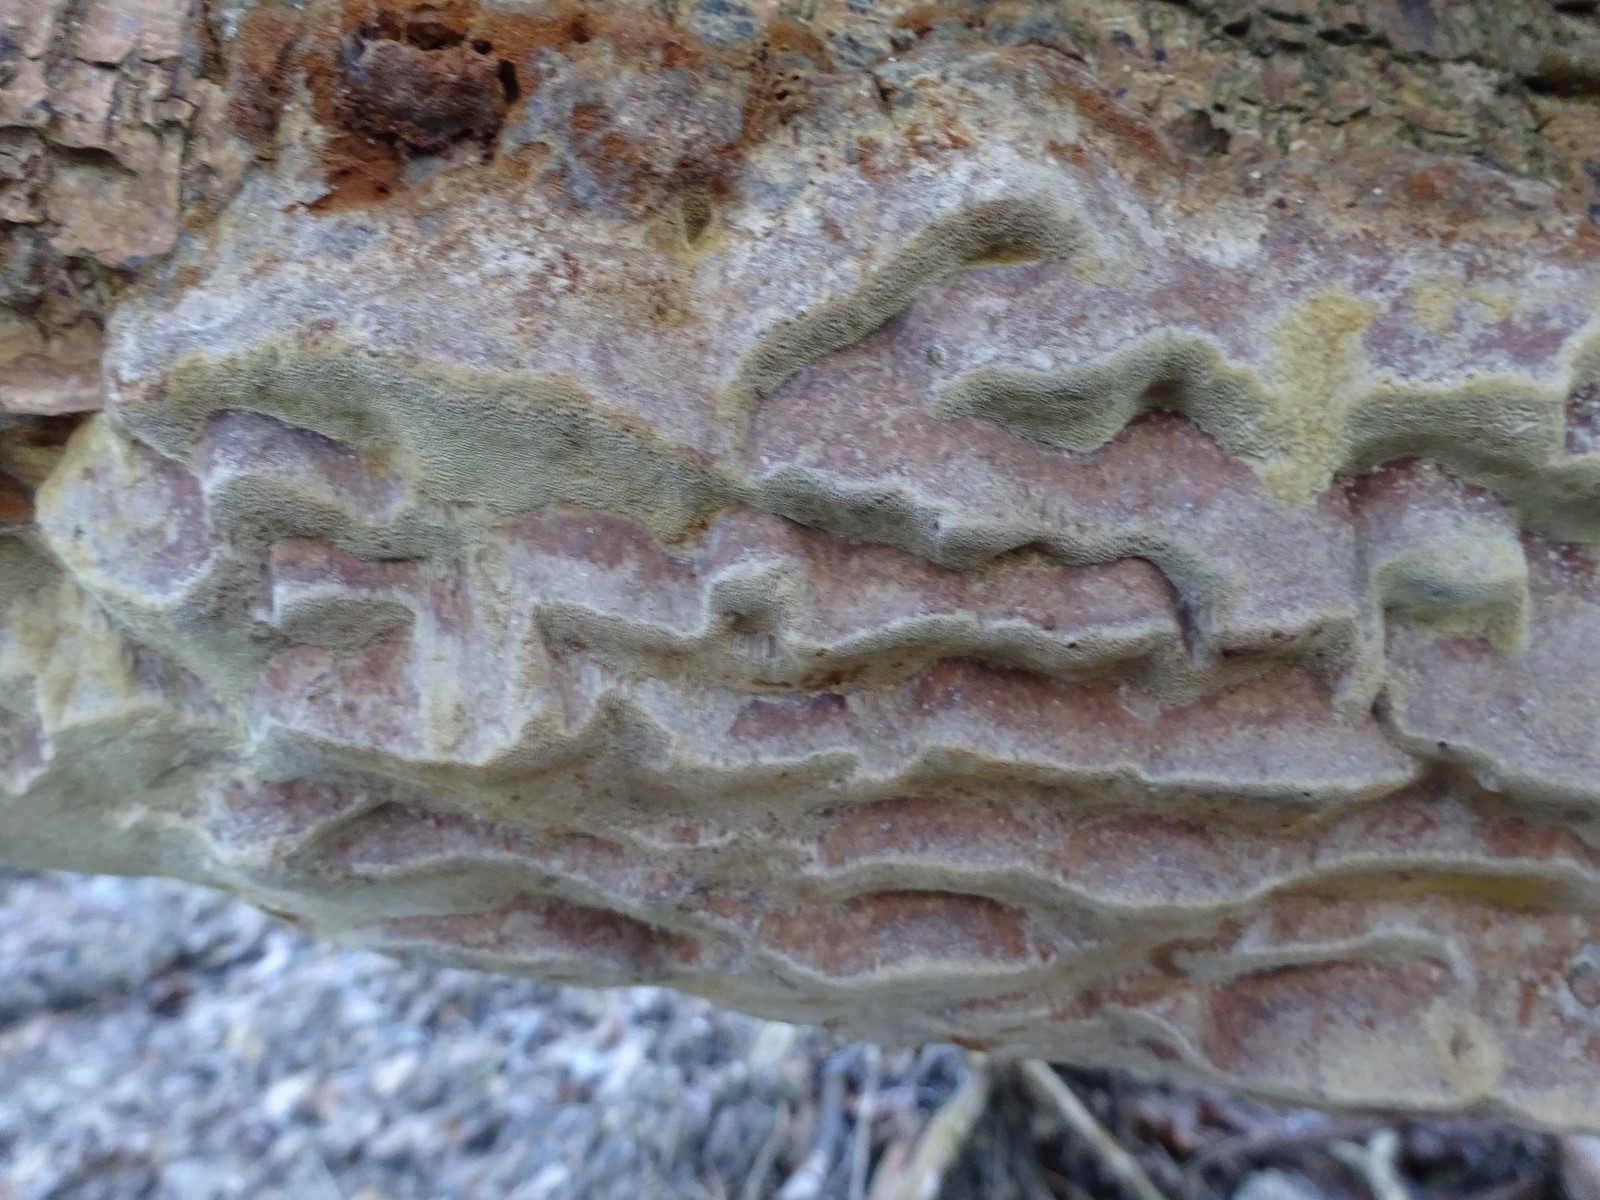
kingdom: Fungi
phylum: Basidiomycota
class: Agaricomycetes
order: Hymenochaetales
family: Hymenochaetaceae
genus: Phellinus
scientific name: Phellinus pomaceus
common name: blomme-ildporesvamp
